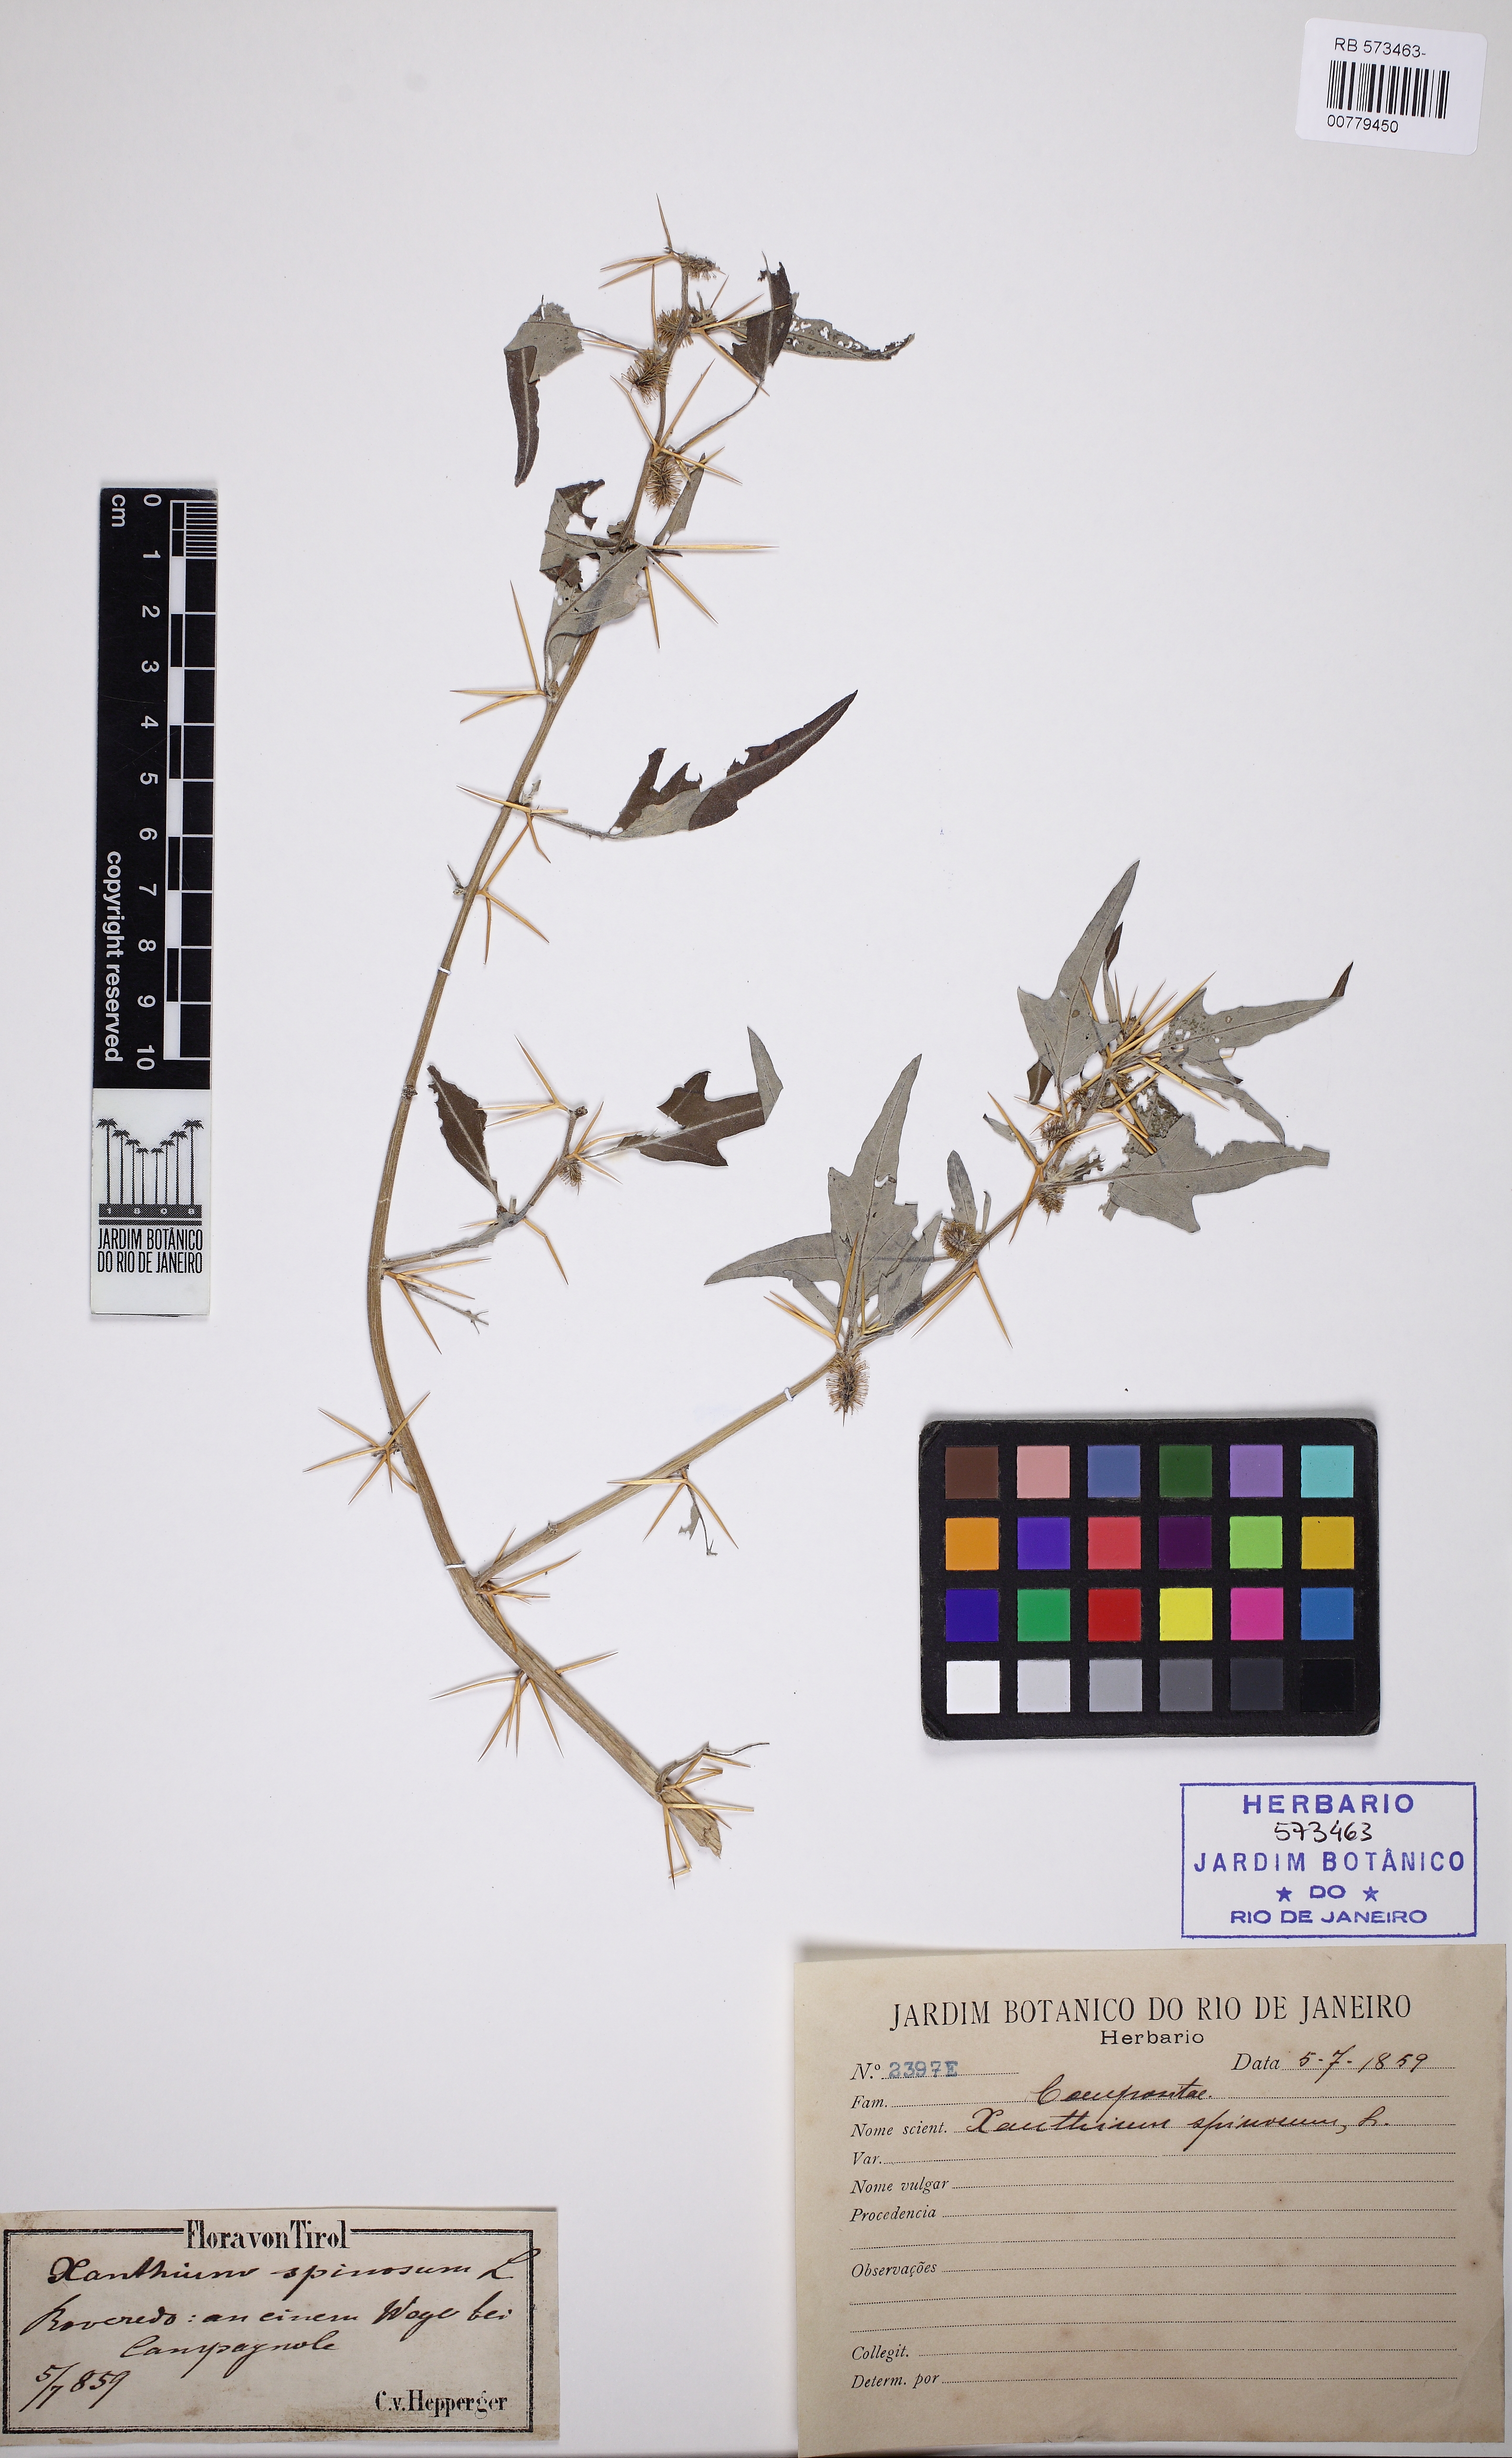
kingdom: Plantae
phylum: Tracheophyta
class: Magnoliopsida
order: Asterales
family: Asteraceae
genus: Xanthium
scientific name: Xanthium spinosum
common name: Spiny cocklebur
